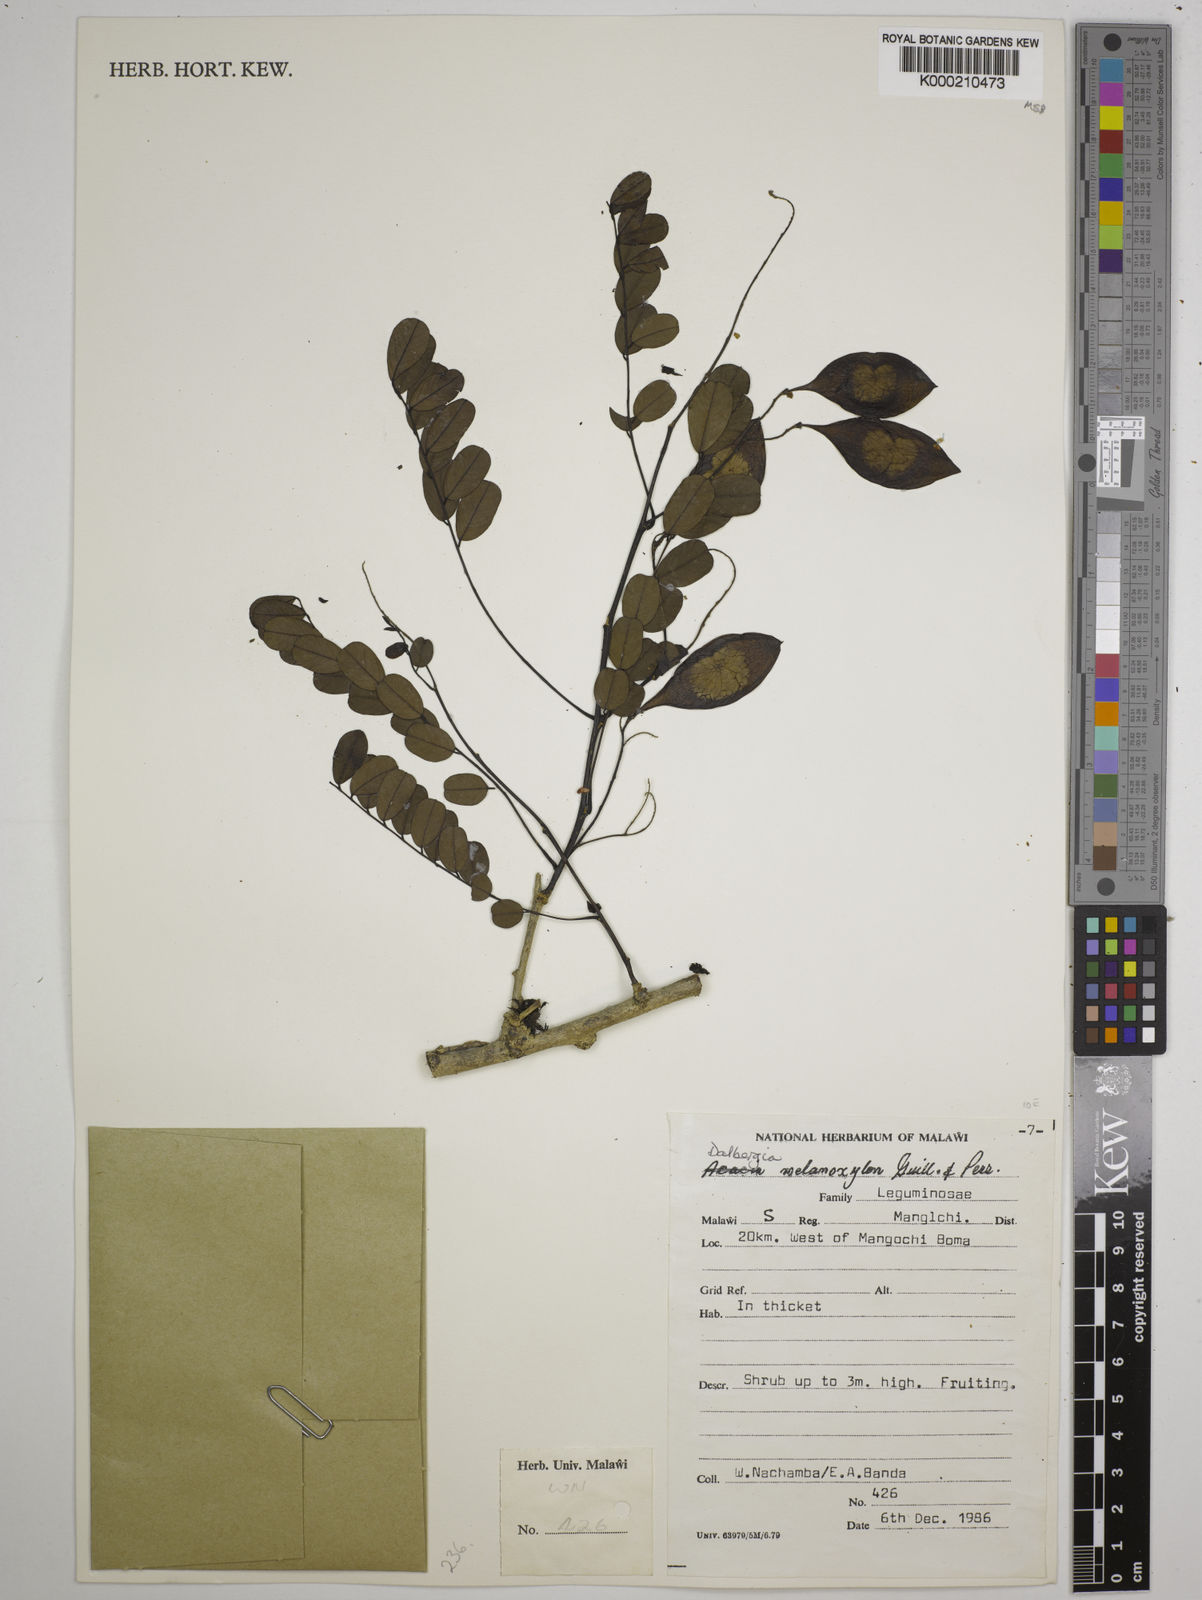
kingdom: Plantae
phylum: Tracheophyta
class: Magnoliopsida
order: Fabales
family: Fabaceae
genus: Dalbergia
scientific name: Dalbergia melanoxylon
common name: African blackwood
